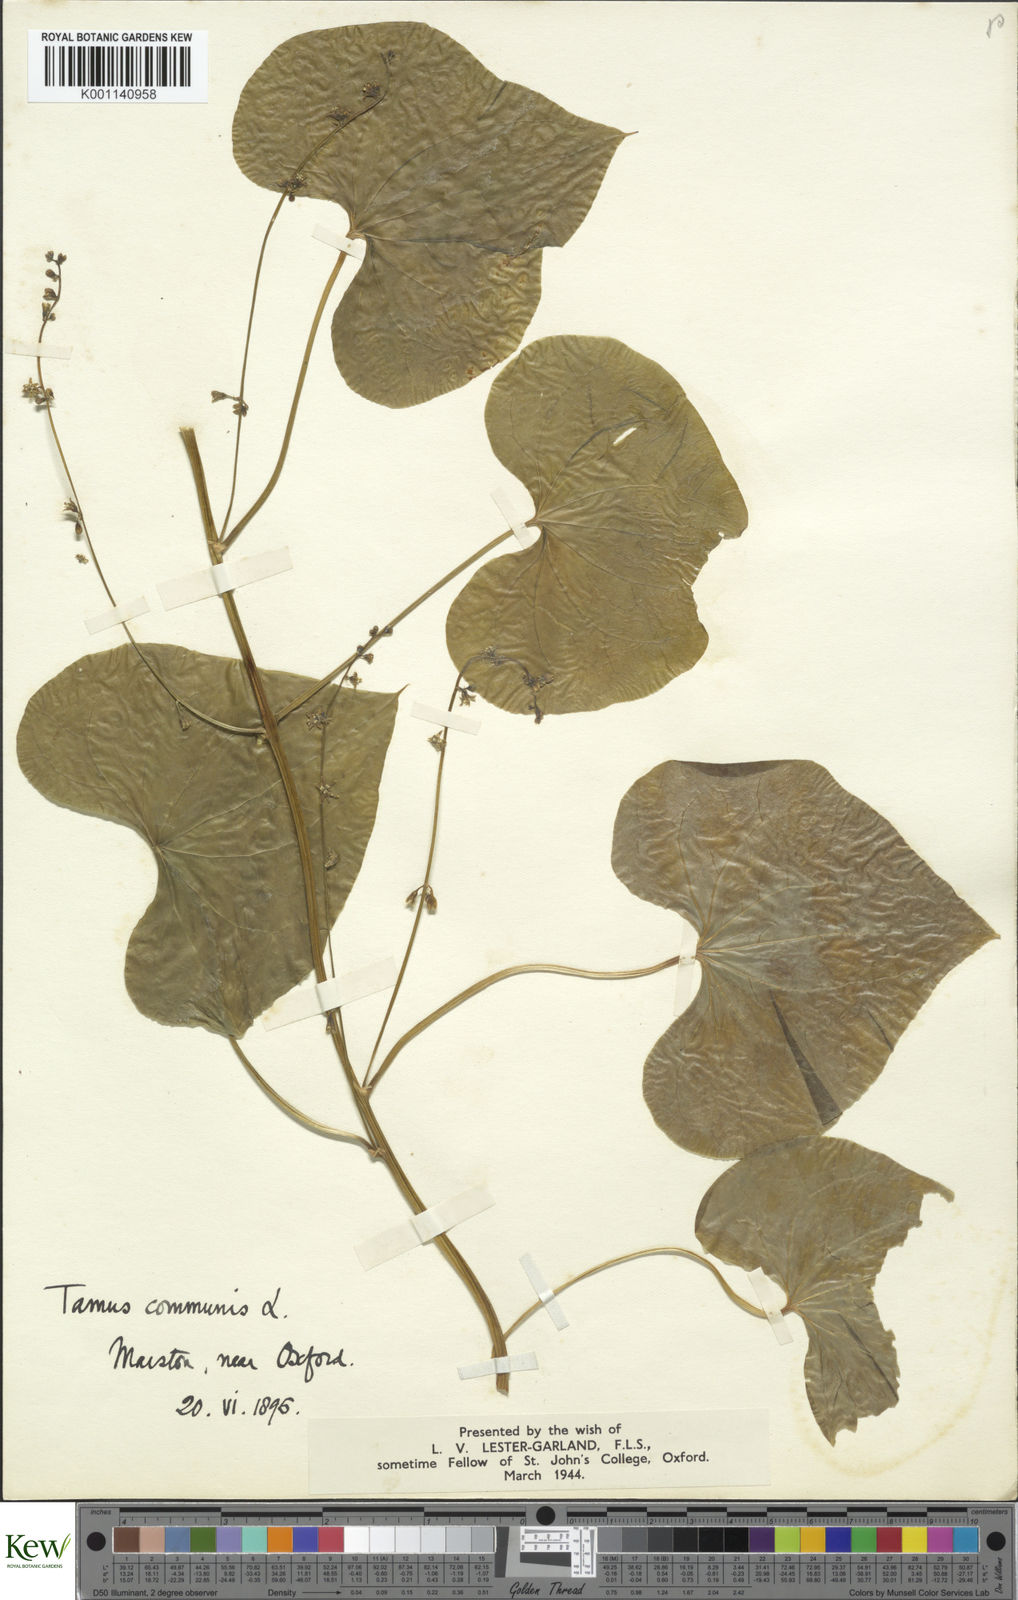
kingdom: Plantae
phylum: Tracheophyta
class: Liliopsida
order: Dioscoreales
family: Dioscoreaceae
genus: Dioscorea
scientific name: Dioscorea communis
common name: Black-bindweed
